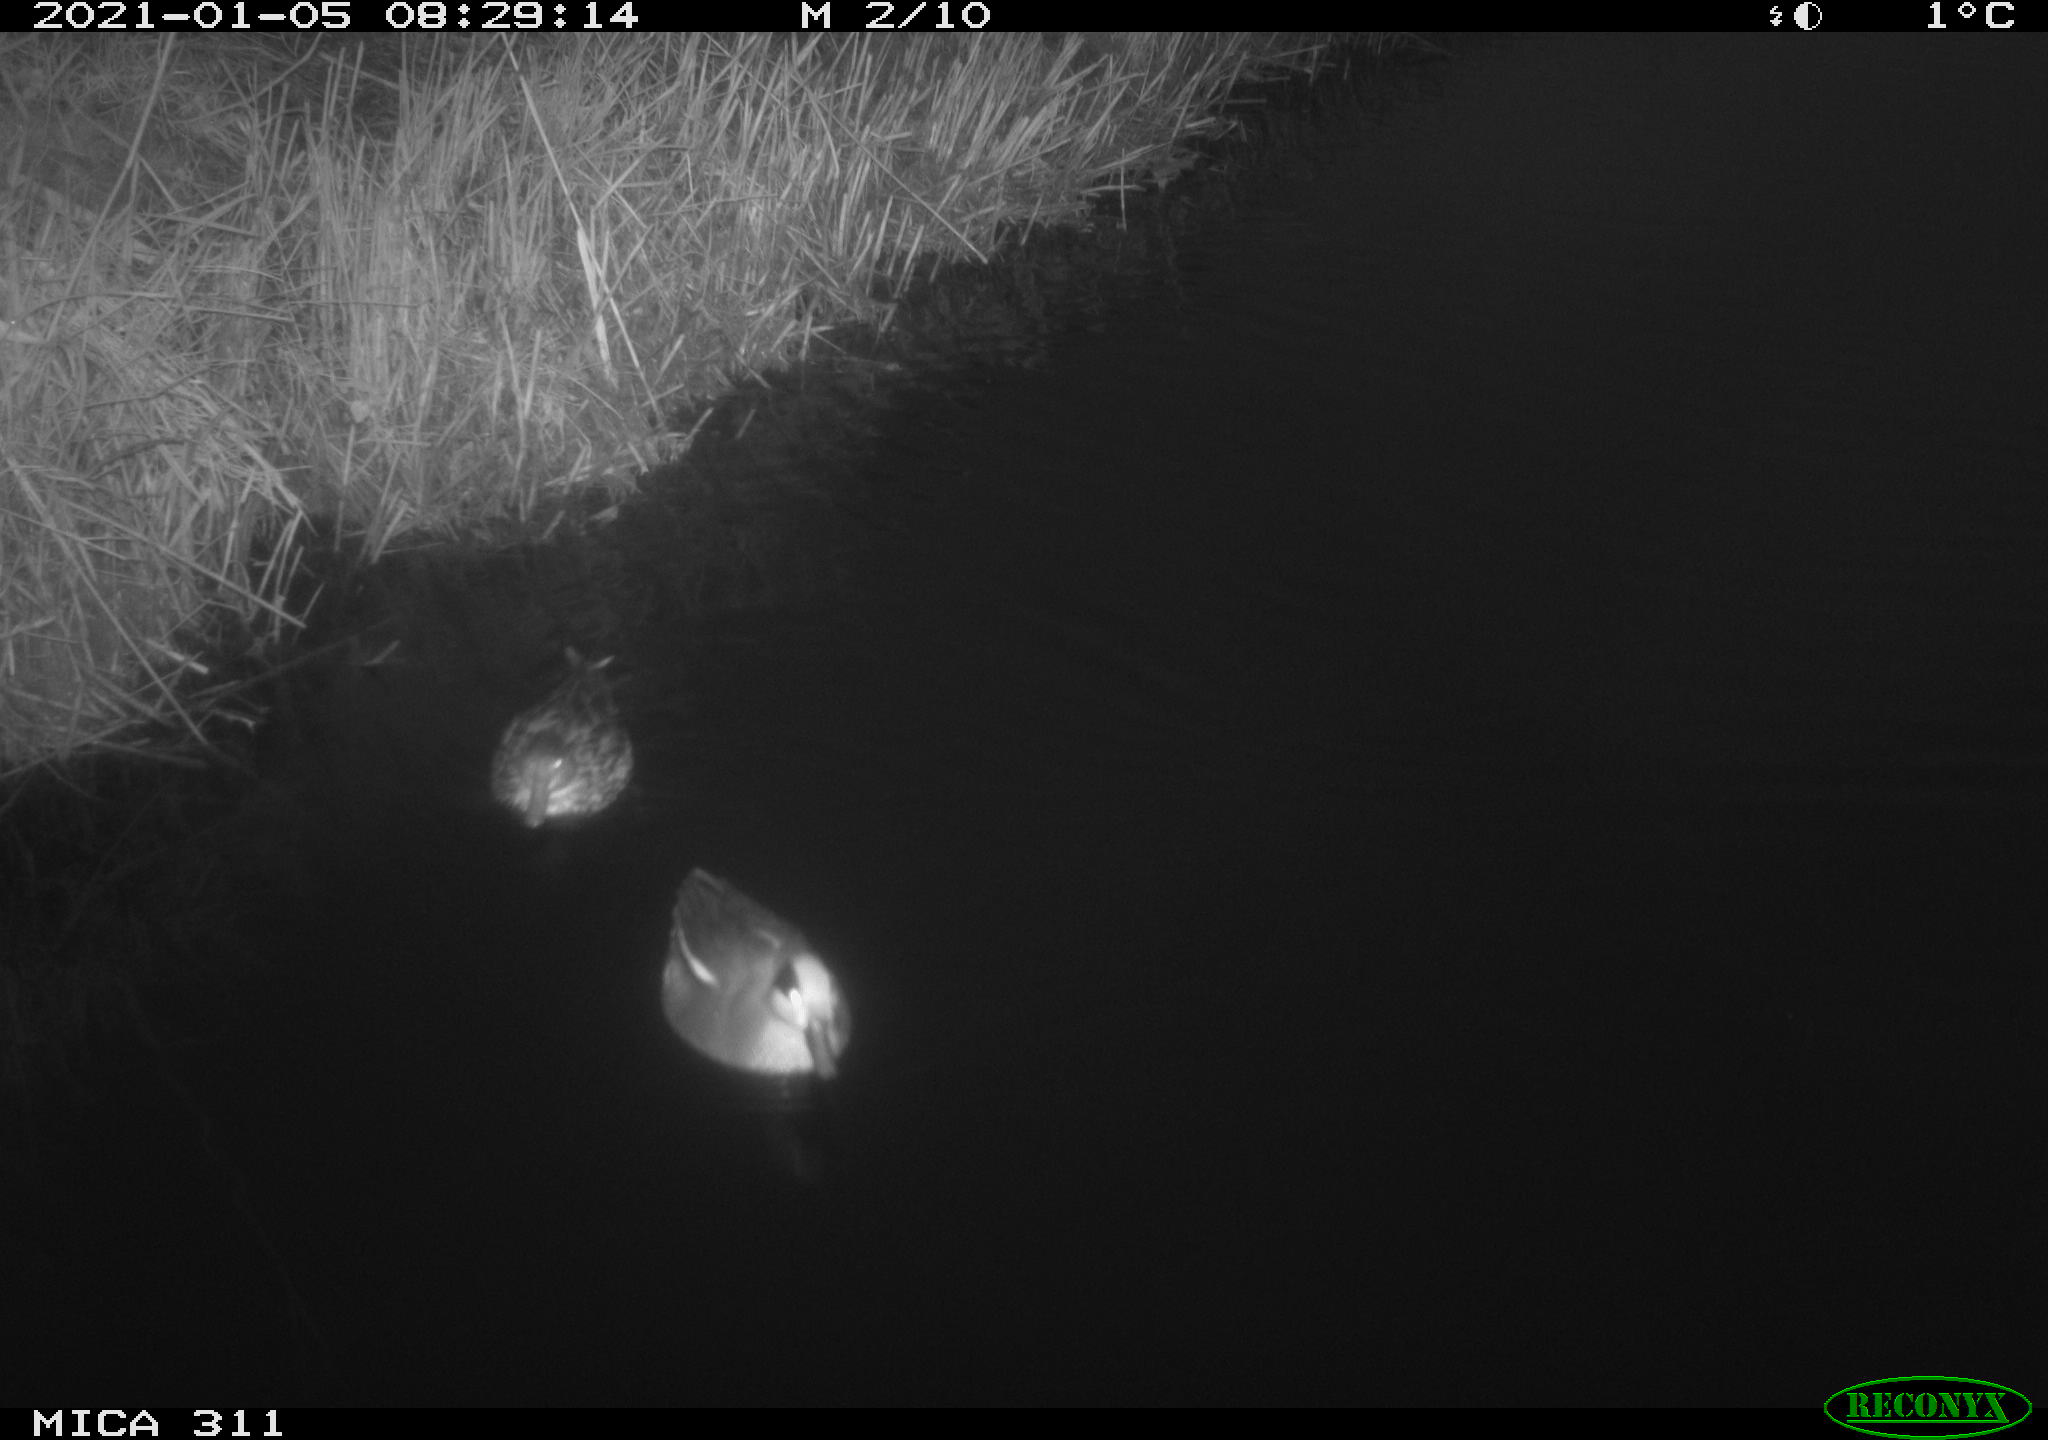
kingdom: Animalia
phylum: Chordata
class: Aves
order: Anseriformes
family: Anatidae
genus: Anas
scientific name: Anas crecca
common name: Eurasian teal
